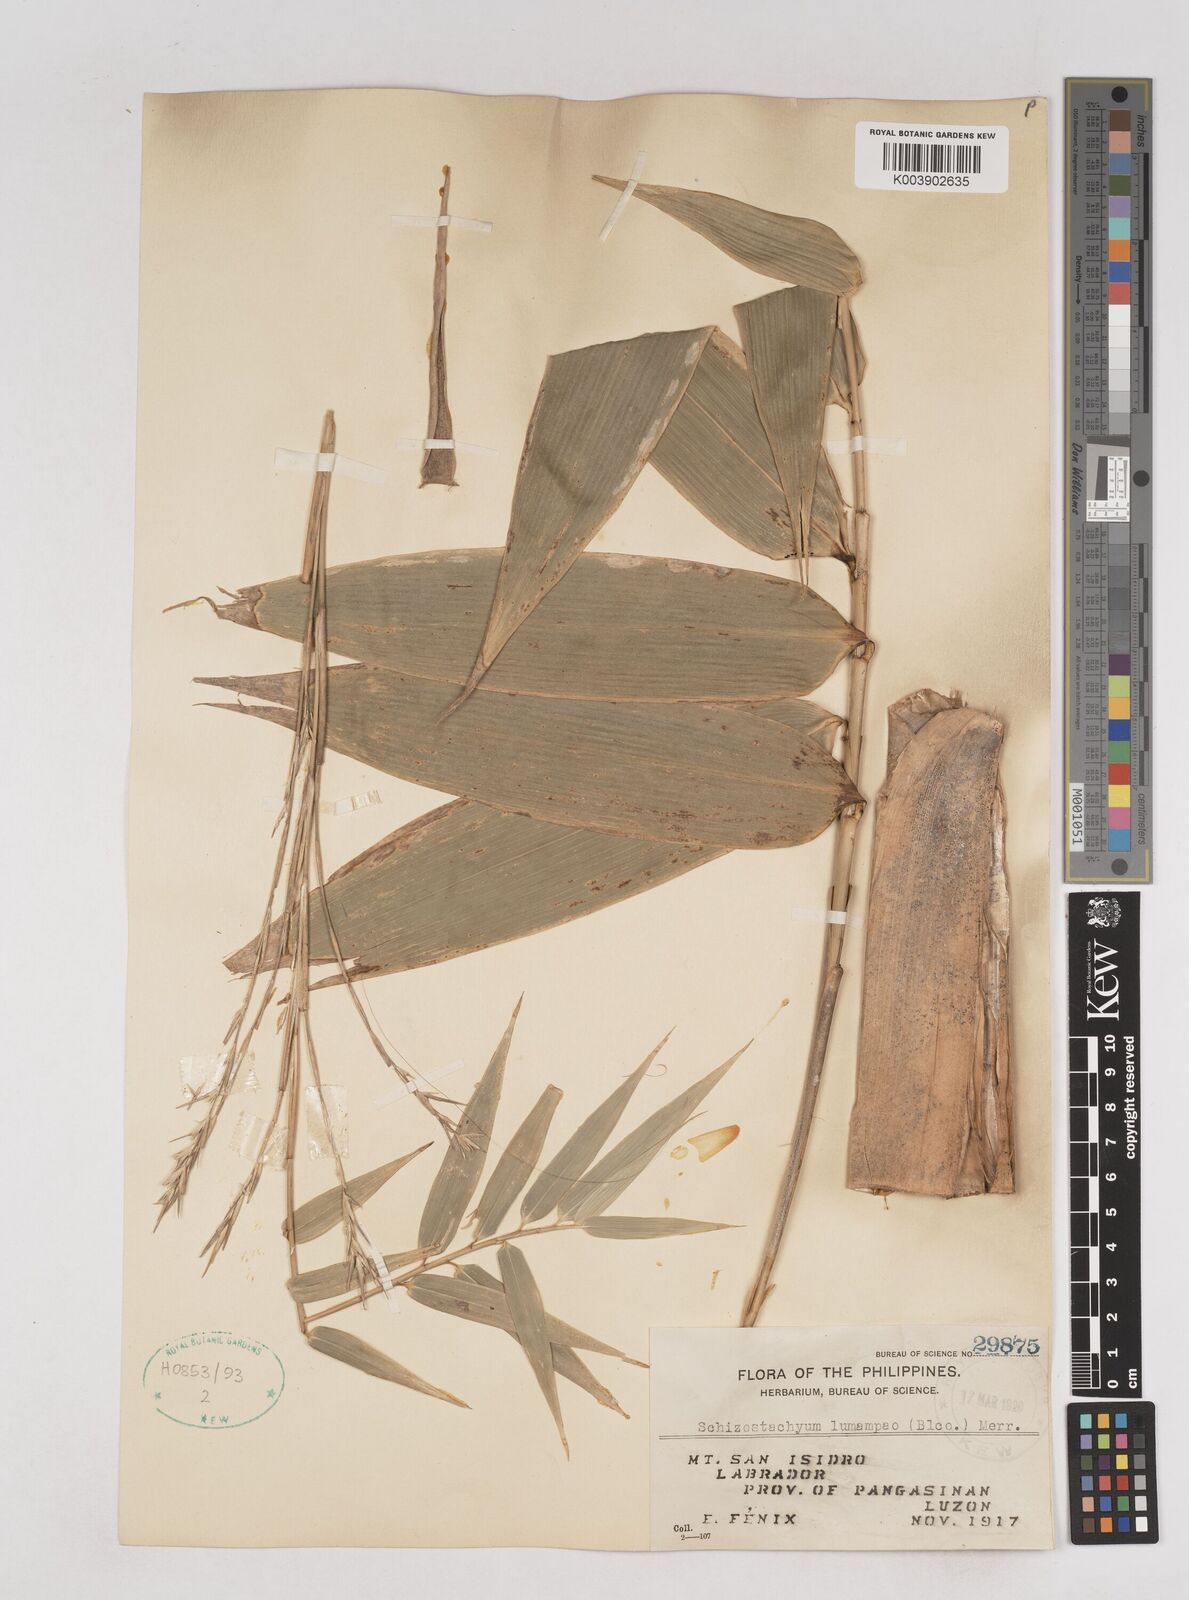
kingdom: Plantae
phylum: Tracheophyta
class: Liliopsida
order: Poales
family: Poaceae
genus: Schizostachyum
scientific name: Schizostachyum lumampao
